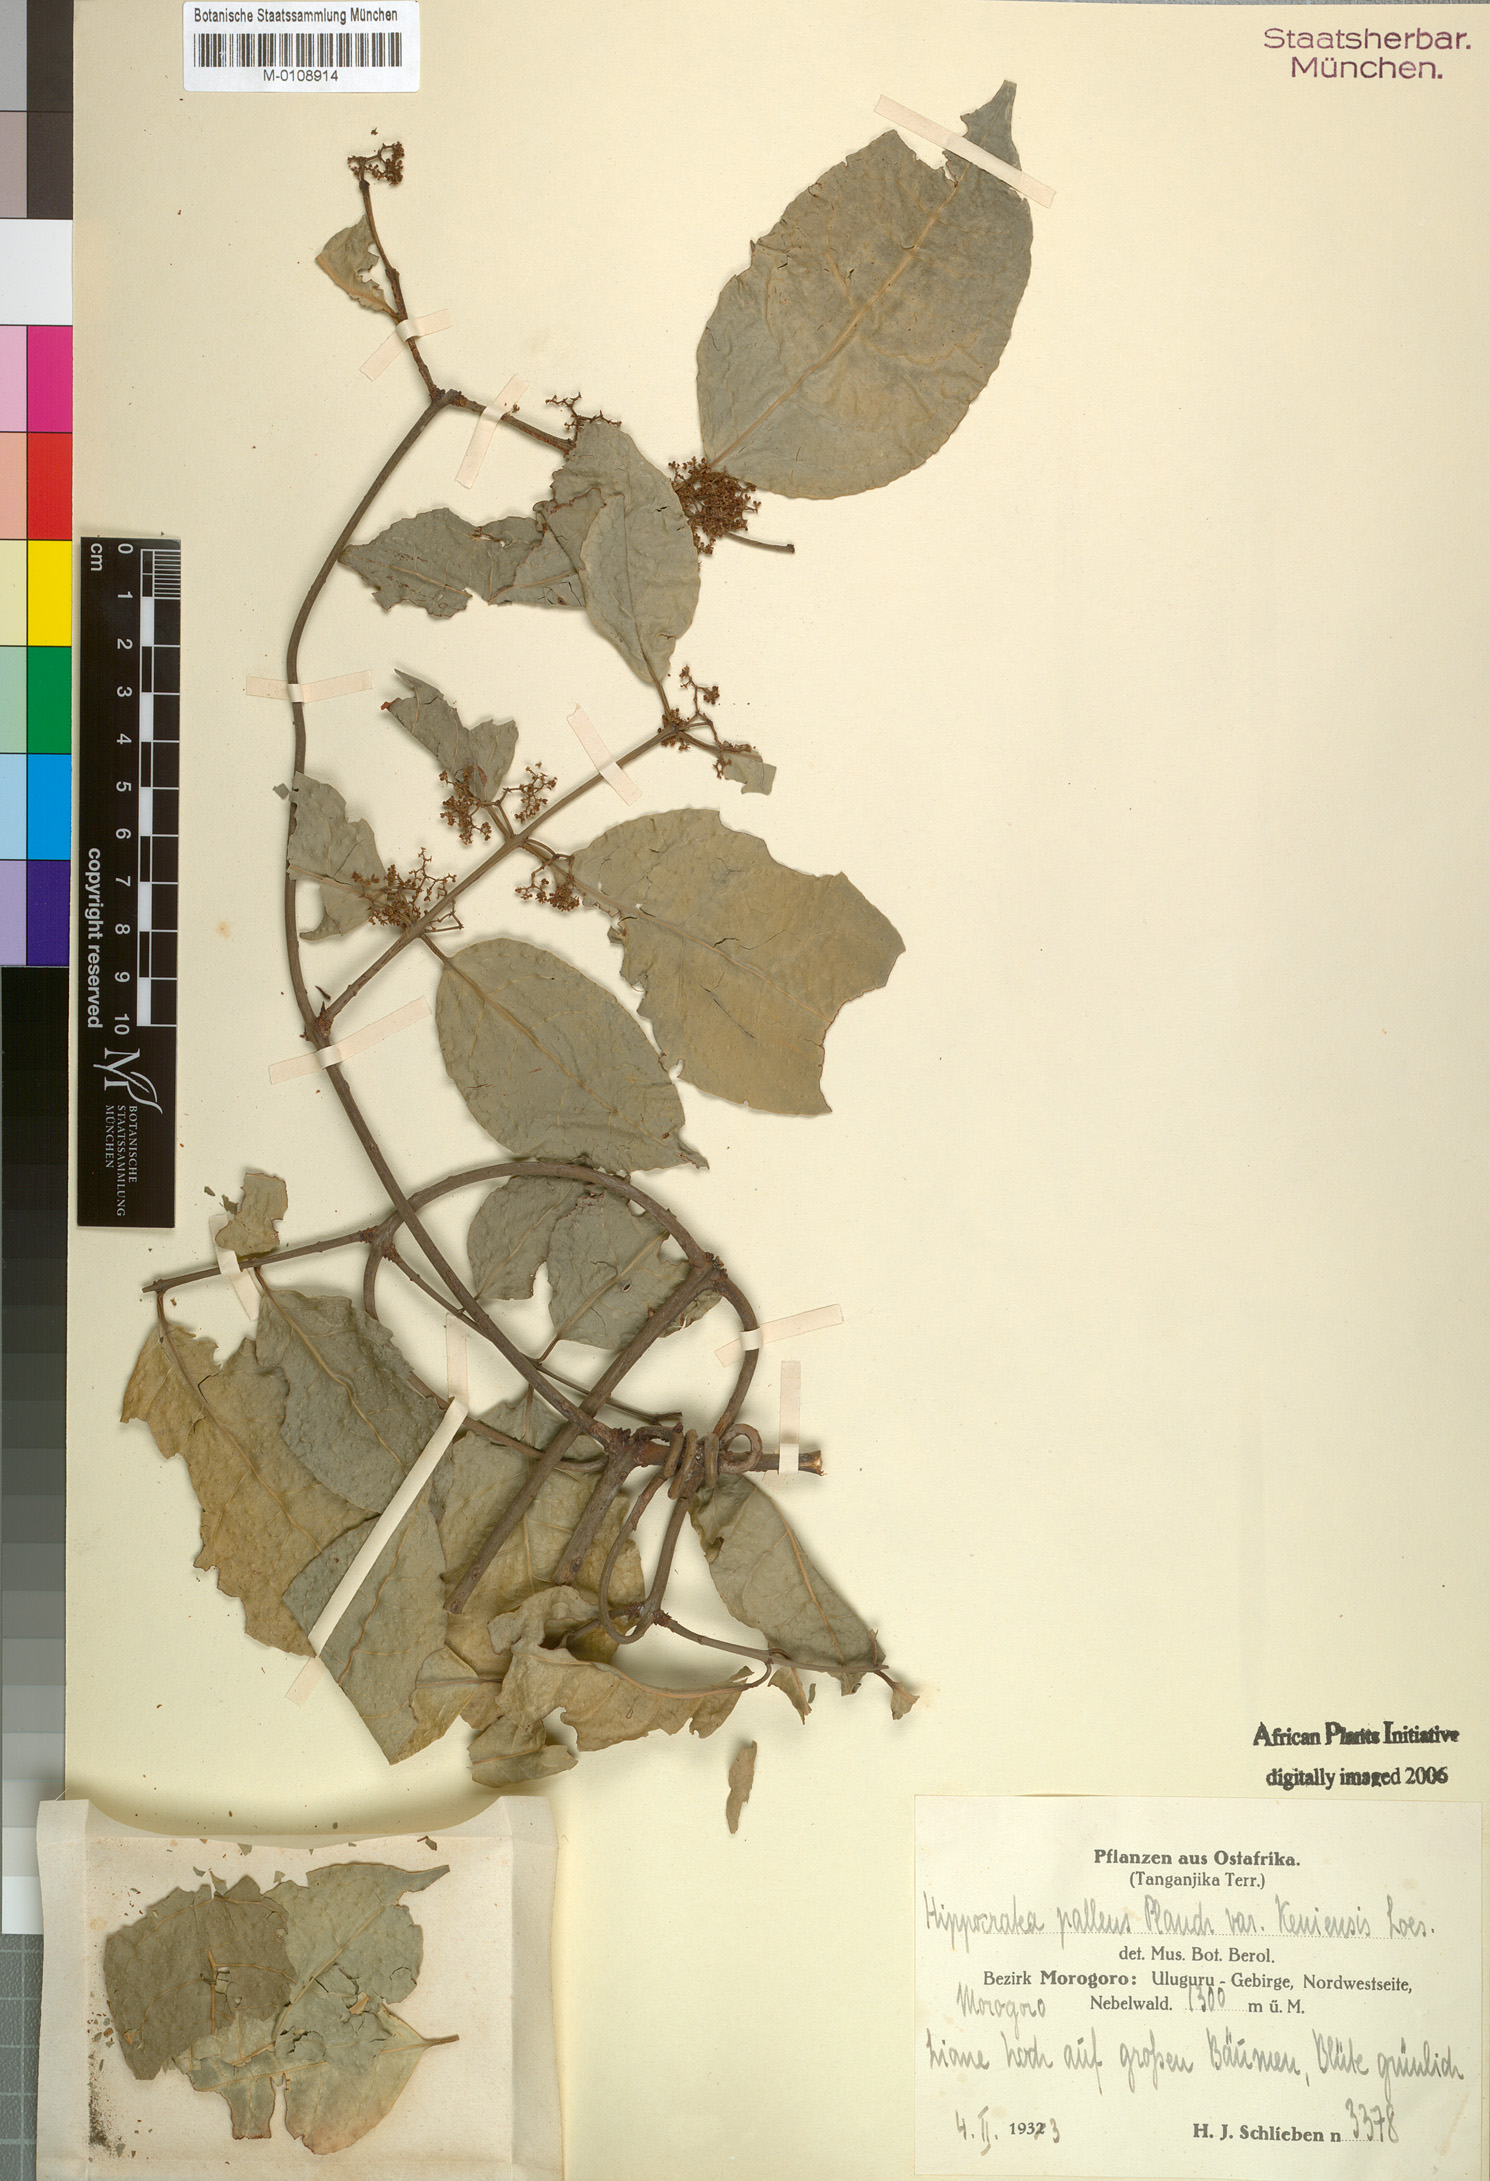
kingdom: Plantae
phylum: Tracheophyta
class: Magnoliopsida
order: Celastrales
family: Celastraceae
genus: Apodostigma
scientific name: Apodostigma pallens
